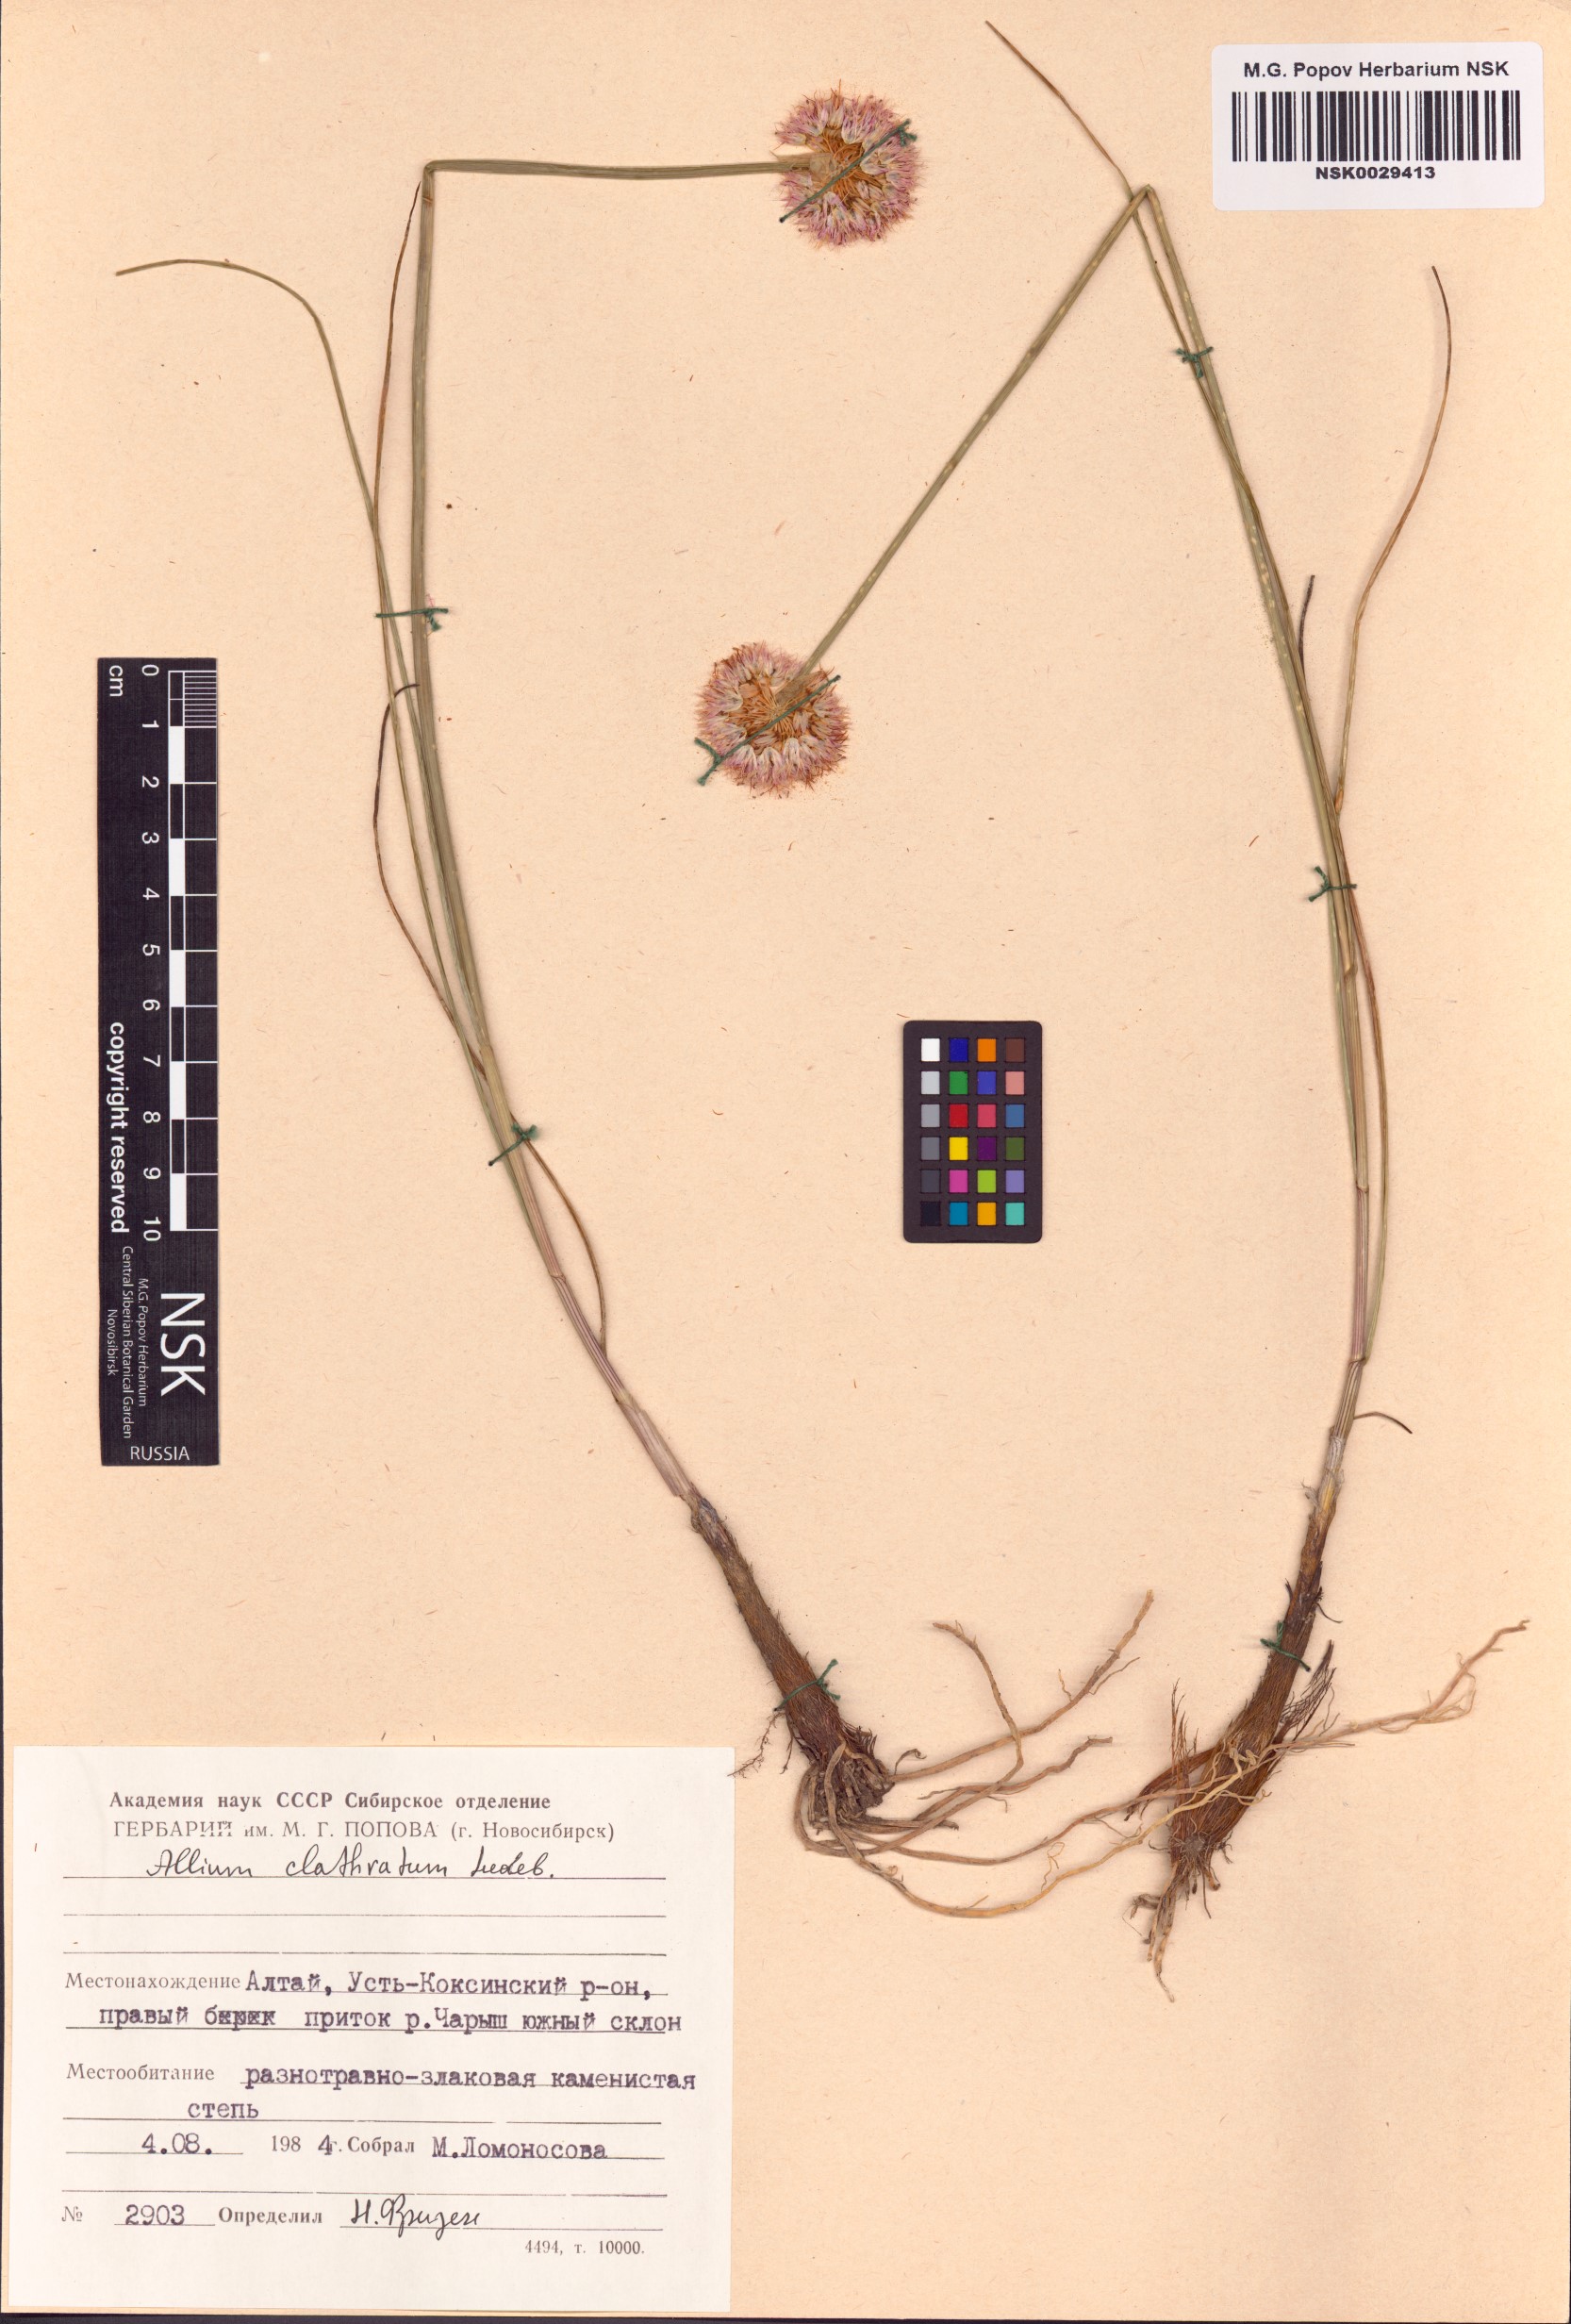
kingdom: Plantae
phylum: Tracheophyta
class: Liliopsida
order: Asparagales
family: Amaryllidaceae
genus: Allium
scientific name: Allium clathratum
